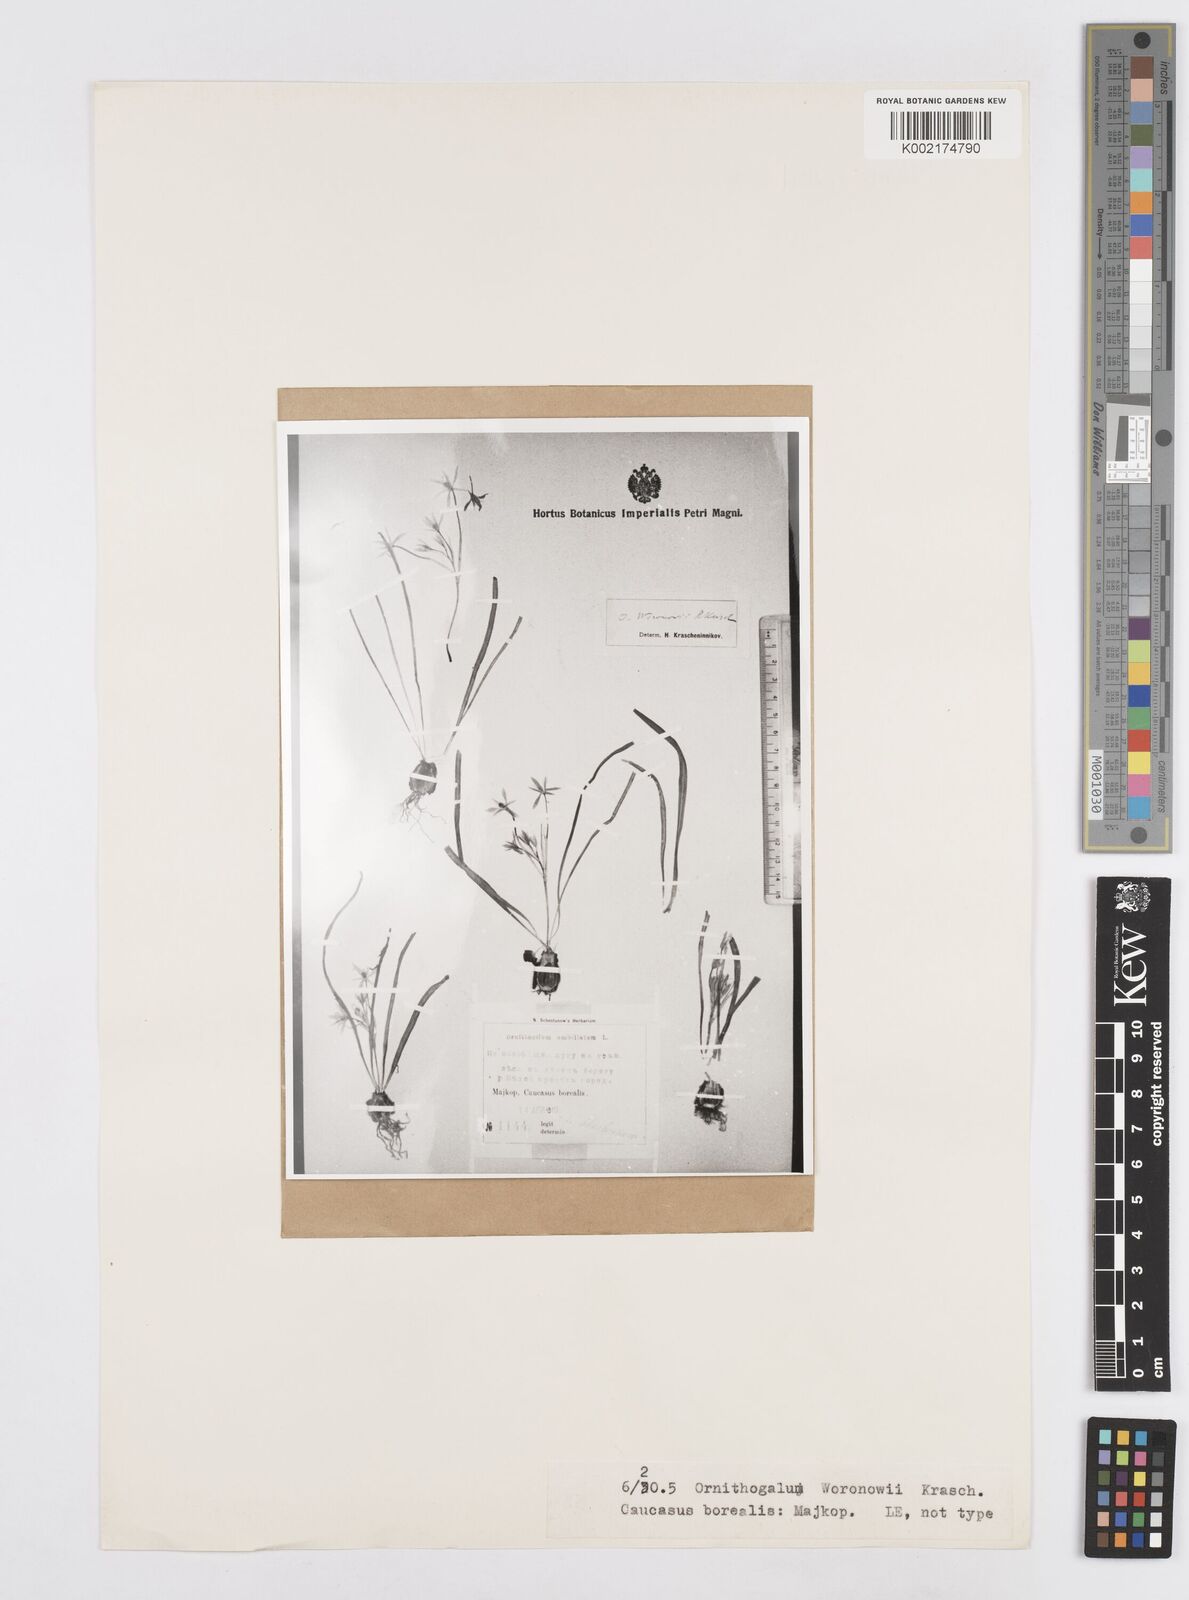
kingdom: Plantae
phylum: Tracheophyta
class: Liliopsida
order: Asparagales
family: Asparagaceae
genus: Ornithogalum
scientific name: Ornithogalum woronowii
